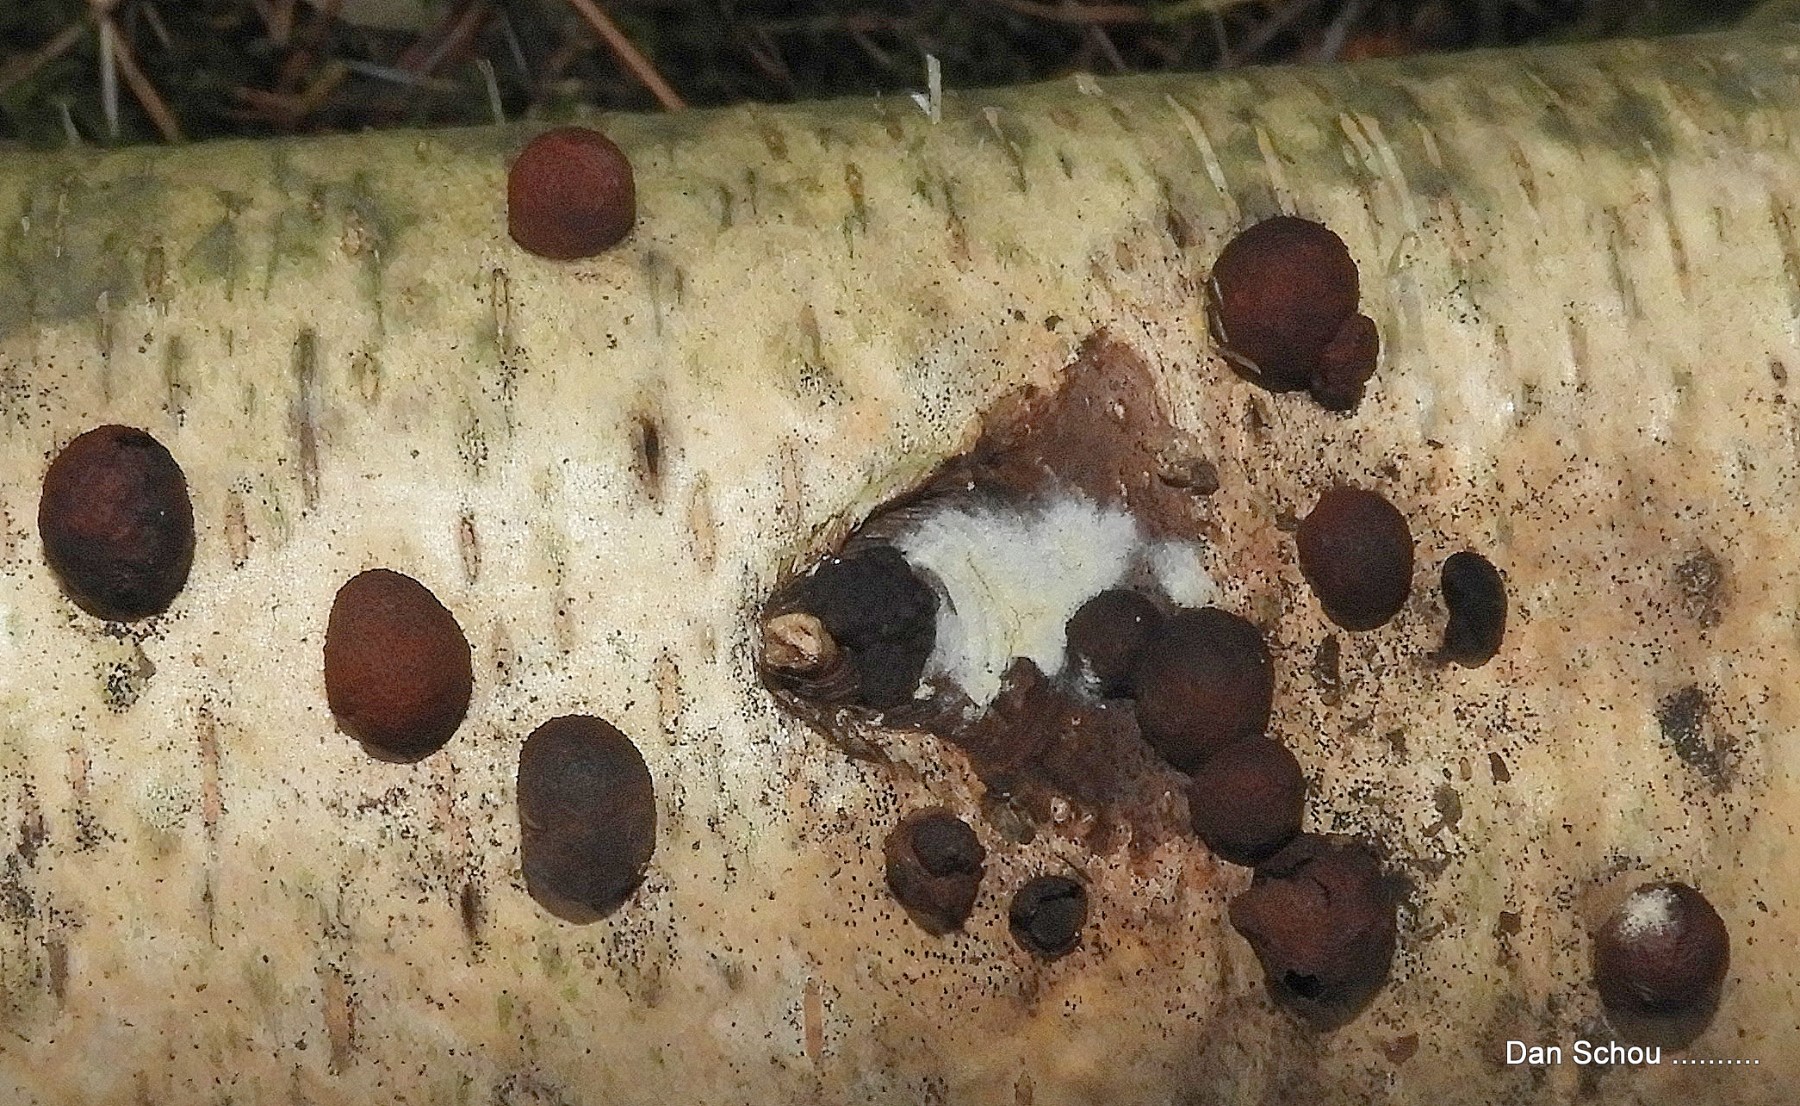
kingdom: Fungi
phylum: Ascomycota
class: Sordariomycetes
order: Xylariales
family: Hypoxylaceae
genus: Hypoxylon
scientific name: Hypoxylon
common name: kulbær
